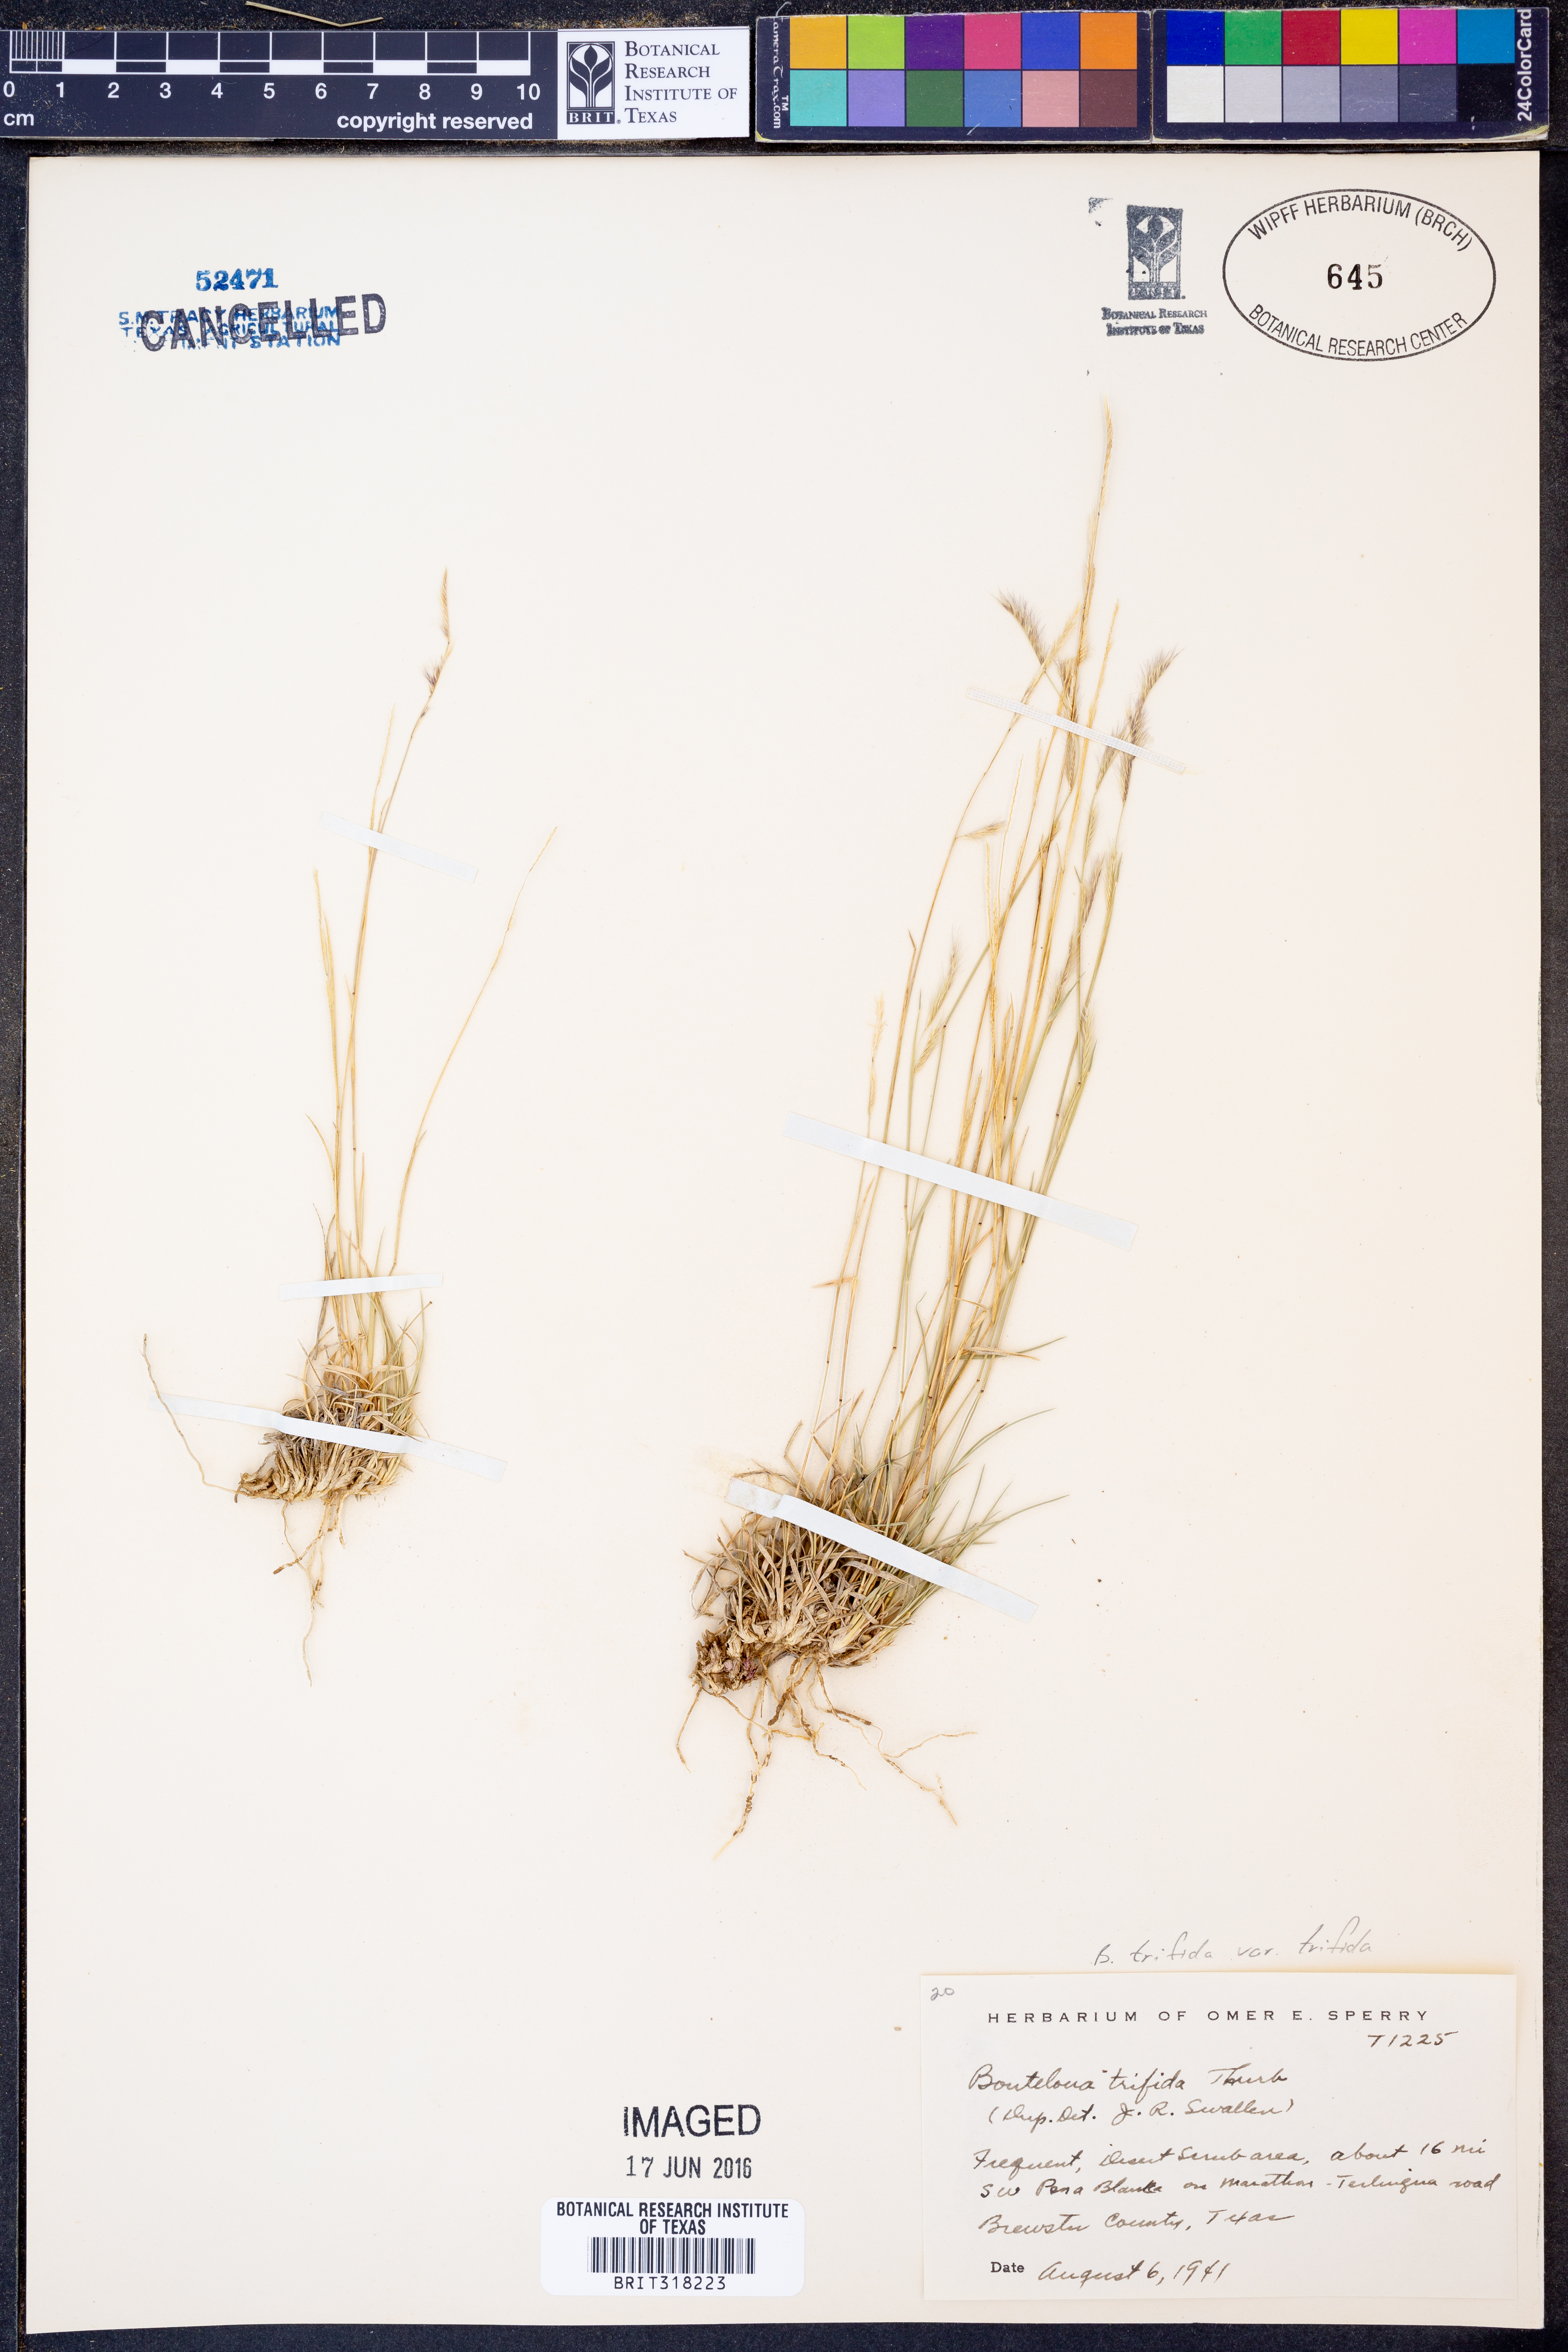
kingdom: Plantae
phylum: Tracheophyta
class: Liliopsida
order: Poales
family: Poaceae
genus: Bouteloua
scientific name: Bouteloua trifida
